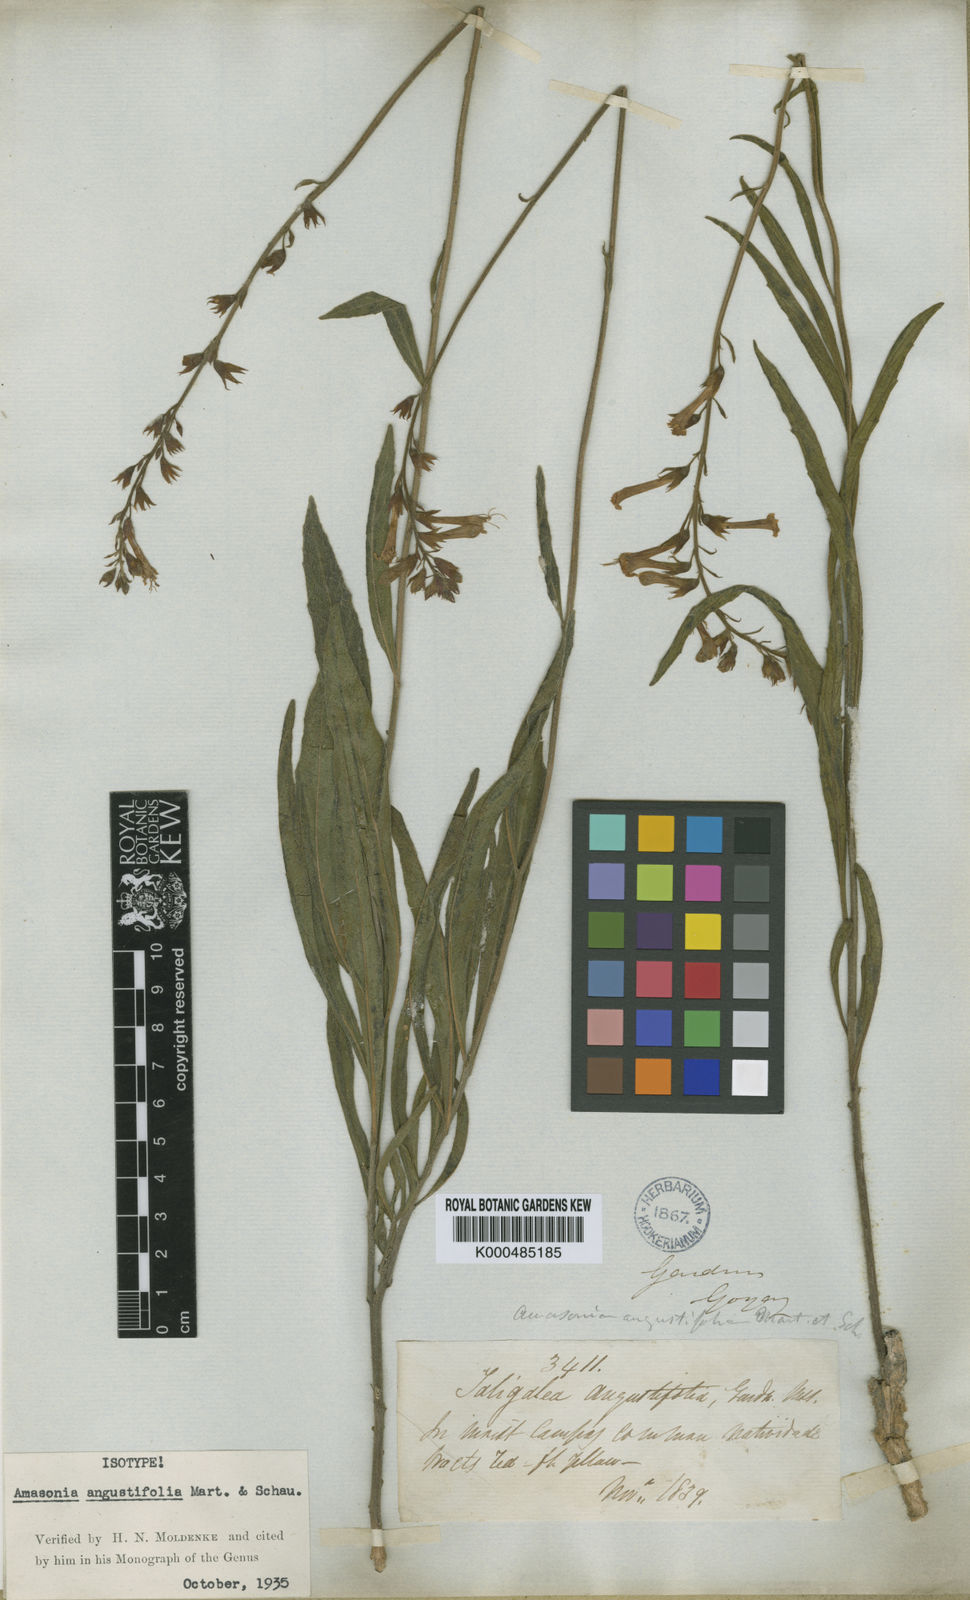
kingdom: Plantae
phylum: Tracheophyta
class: Magnoliopsida
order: Lamiales
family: Lamiaceae
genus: Amasonia
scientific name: Amasonia angustifolia
